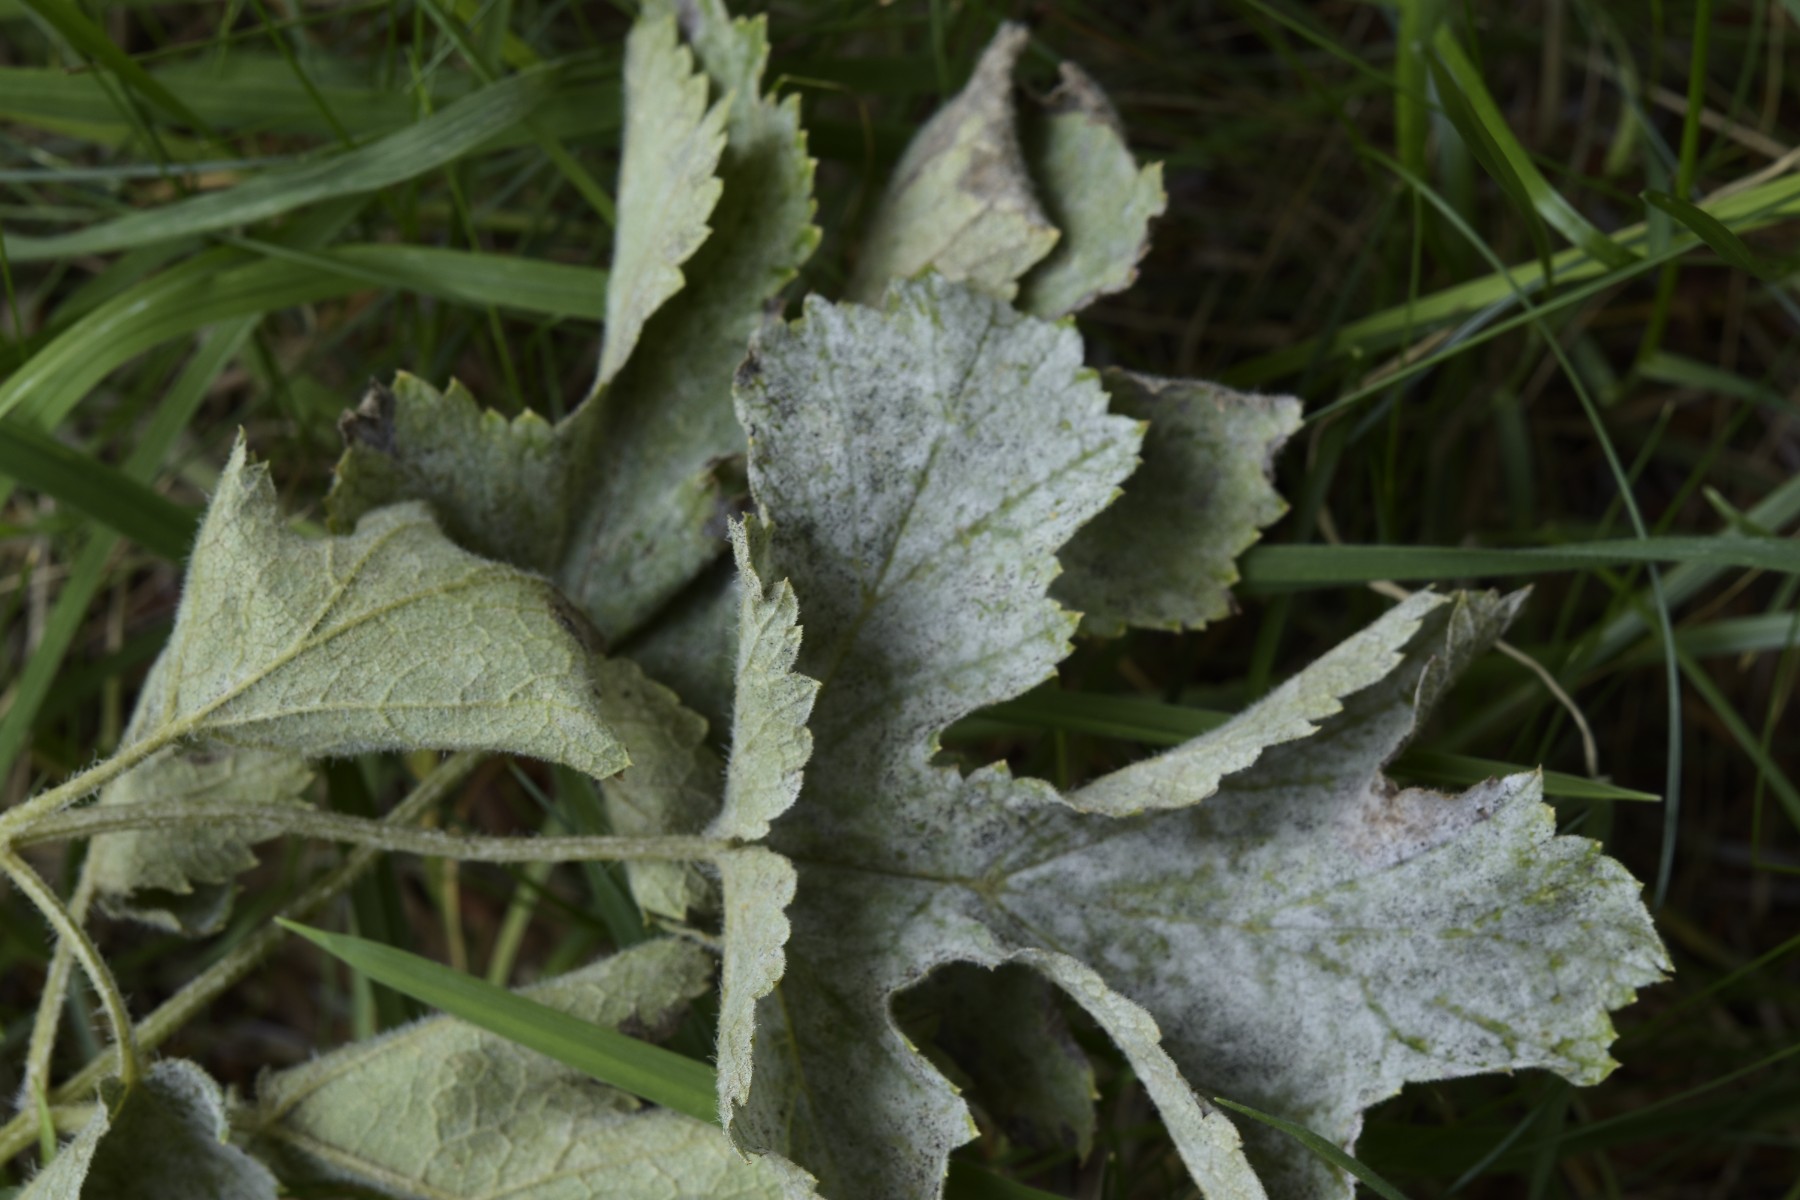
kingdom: Fungi
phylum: Ascomycota
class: Leotiomycetes
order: Helotiales
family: Erysiphaceae
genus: Erysiphe
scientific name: Erysiphe heraclei
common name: skærmplante-meldug
